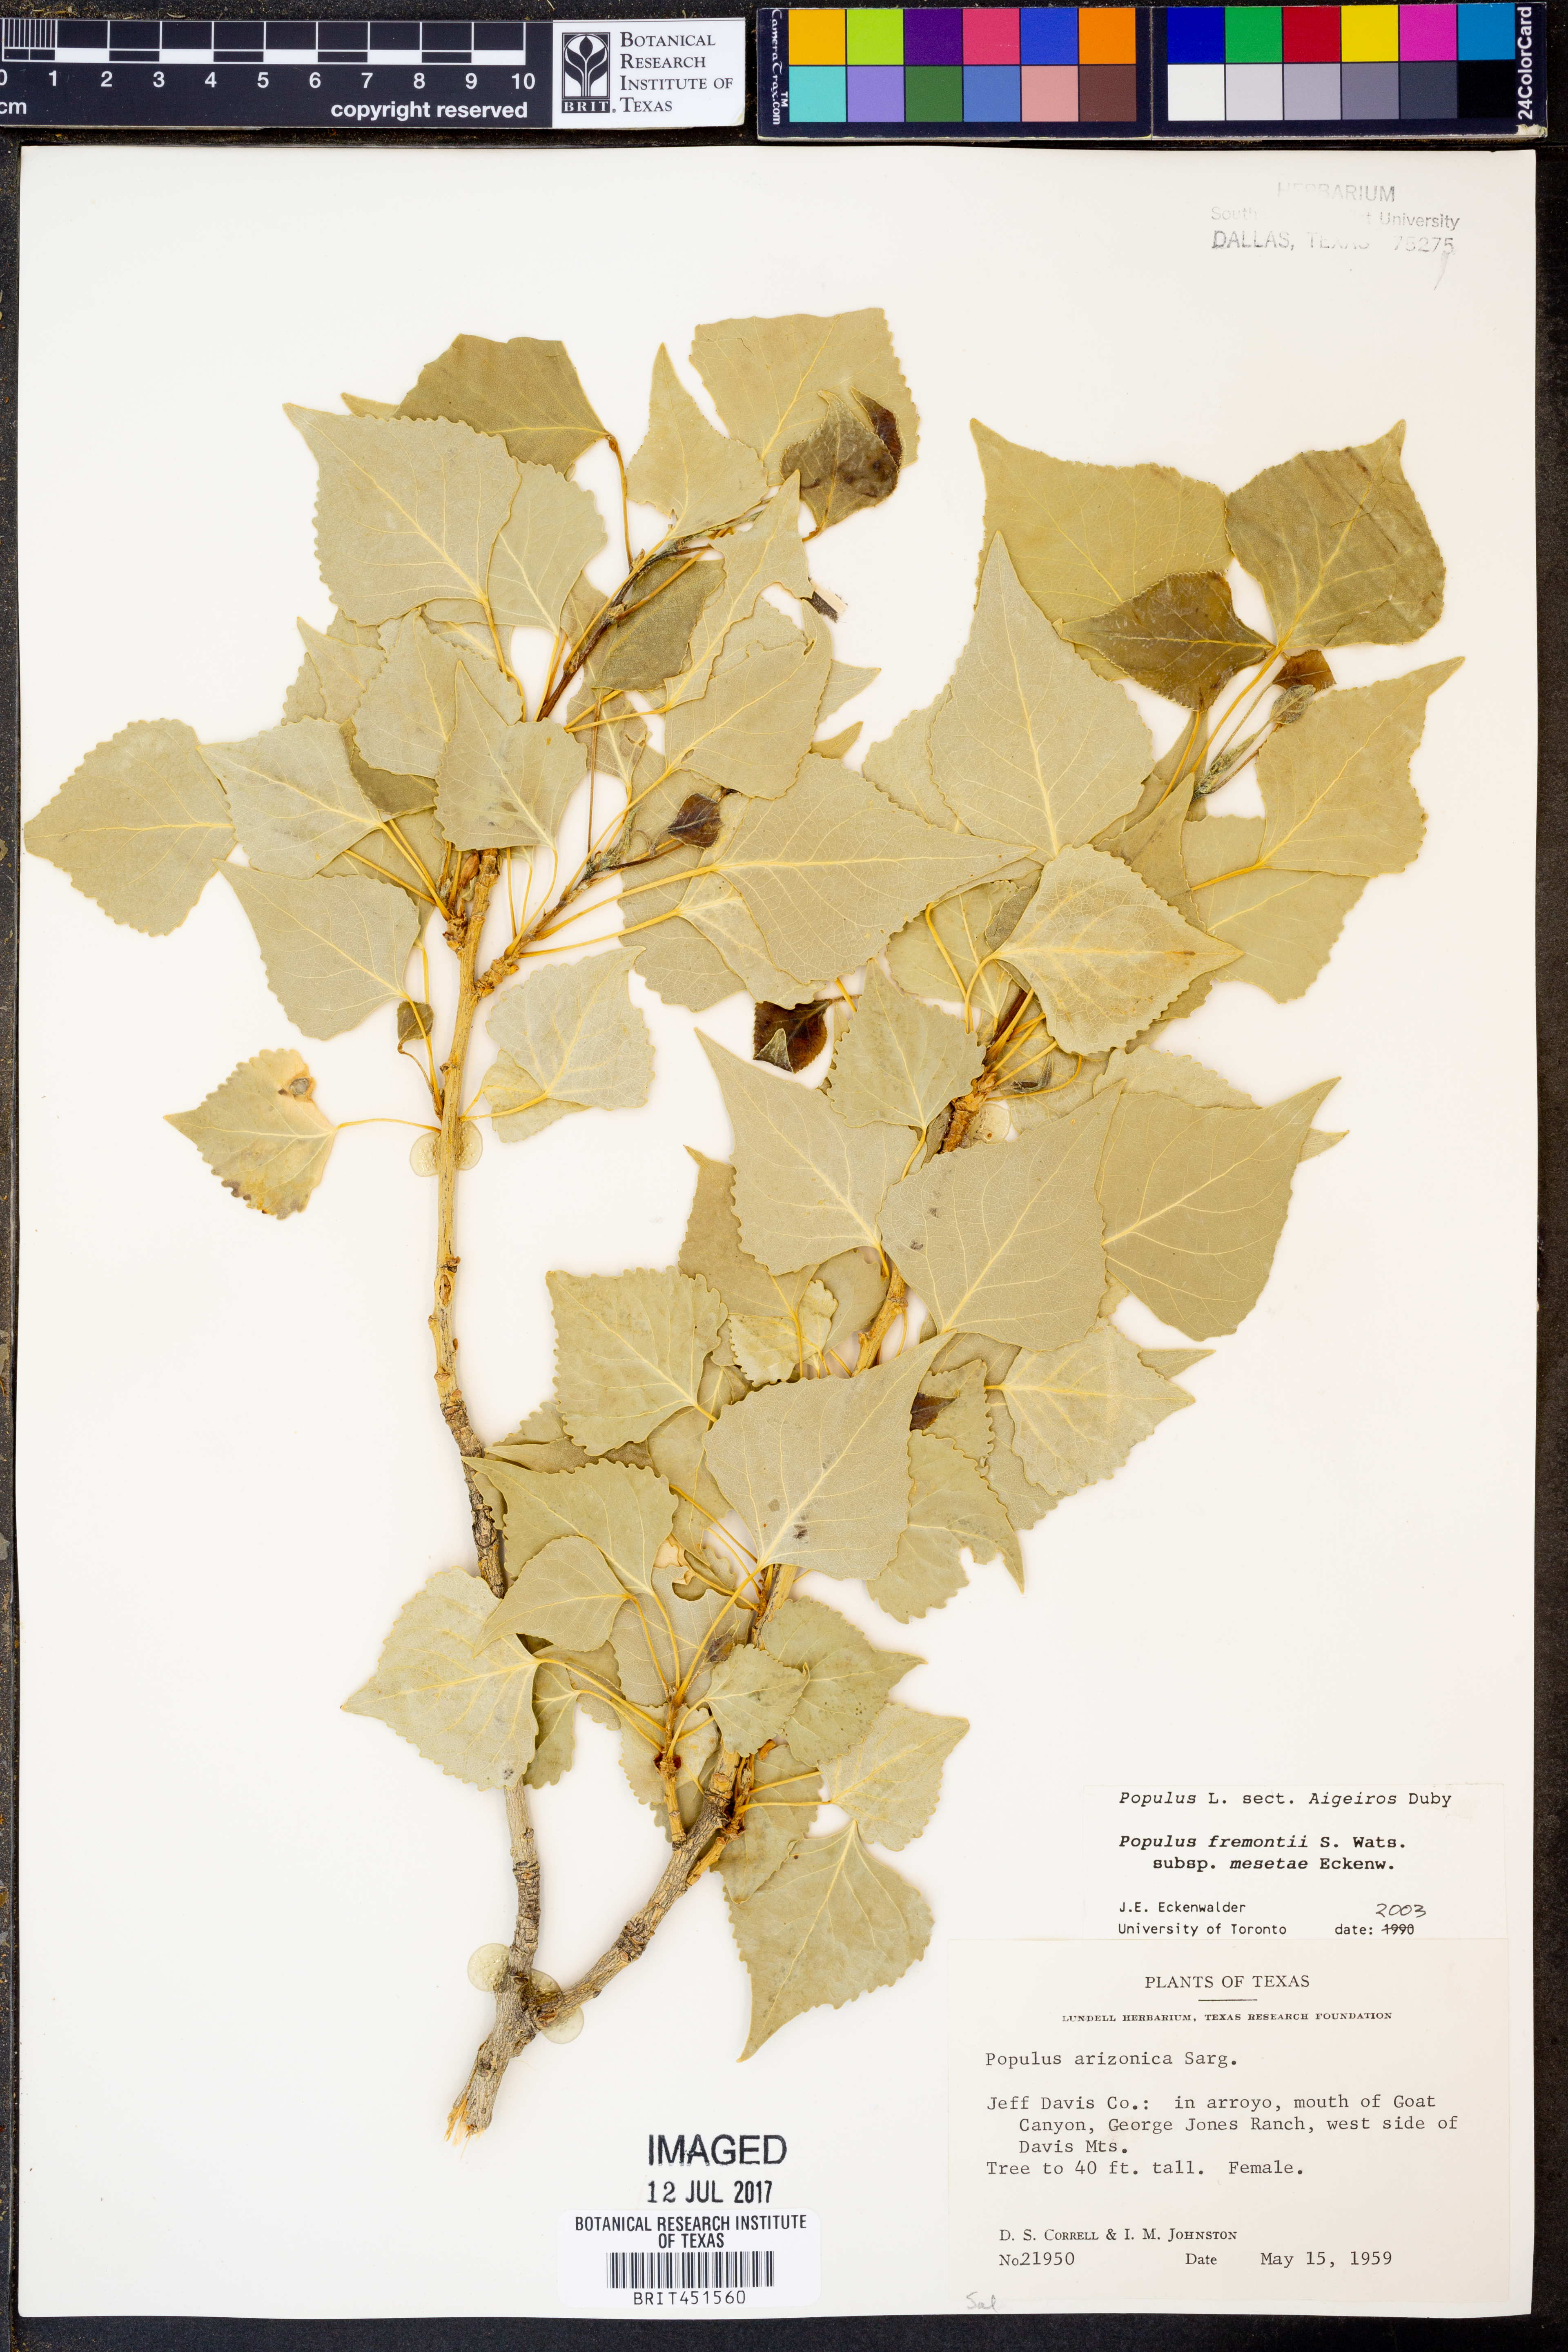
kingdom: Plantae
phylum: Tracheophyta
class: Magnoliopsida
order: Malpighiales
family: Salicaceae
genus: Populus
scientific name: Populus fremontii
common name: Fremont's cottonwood
